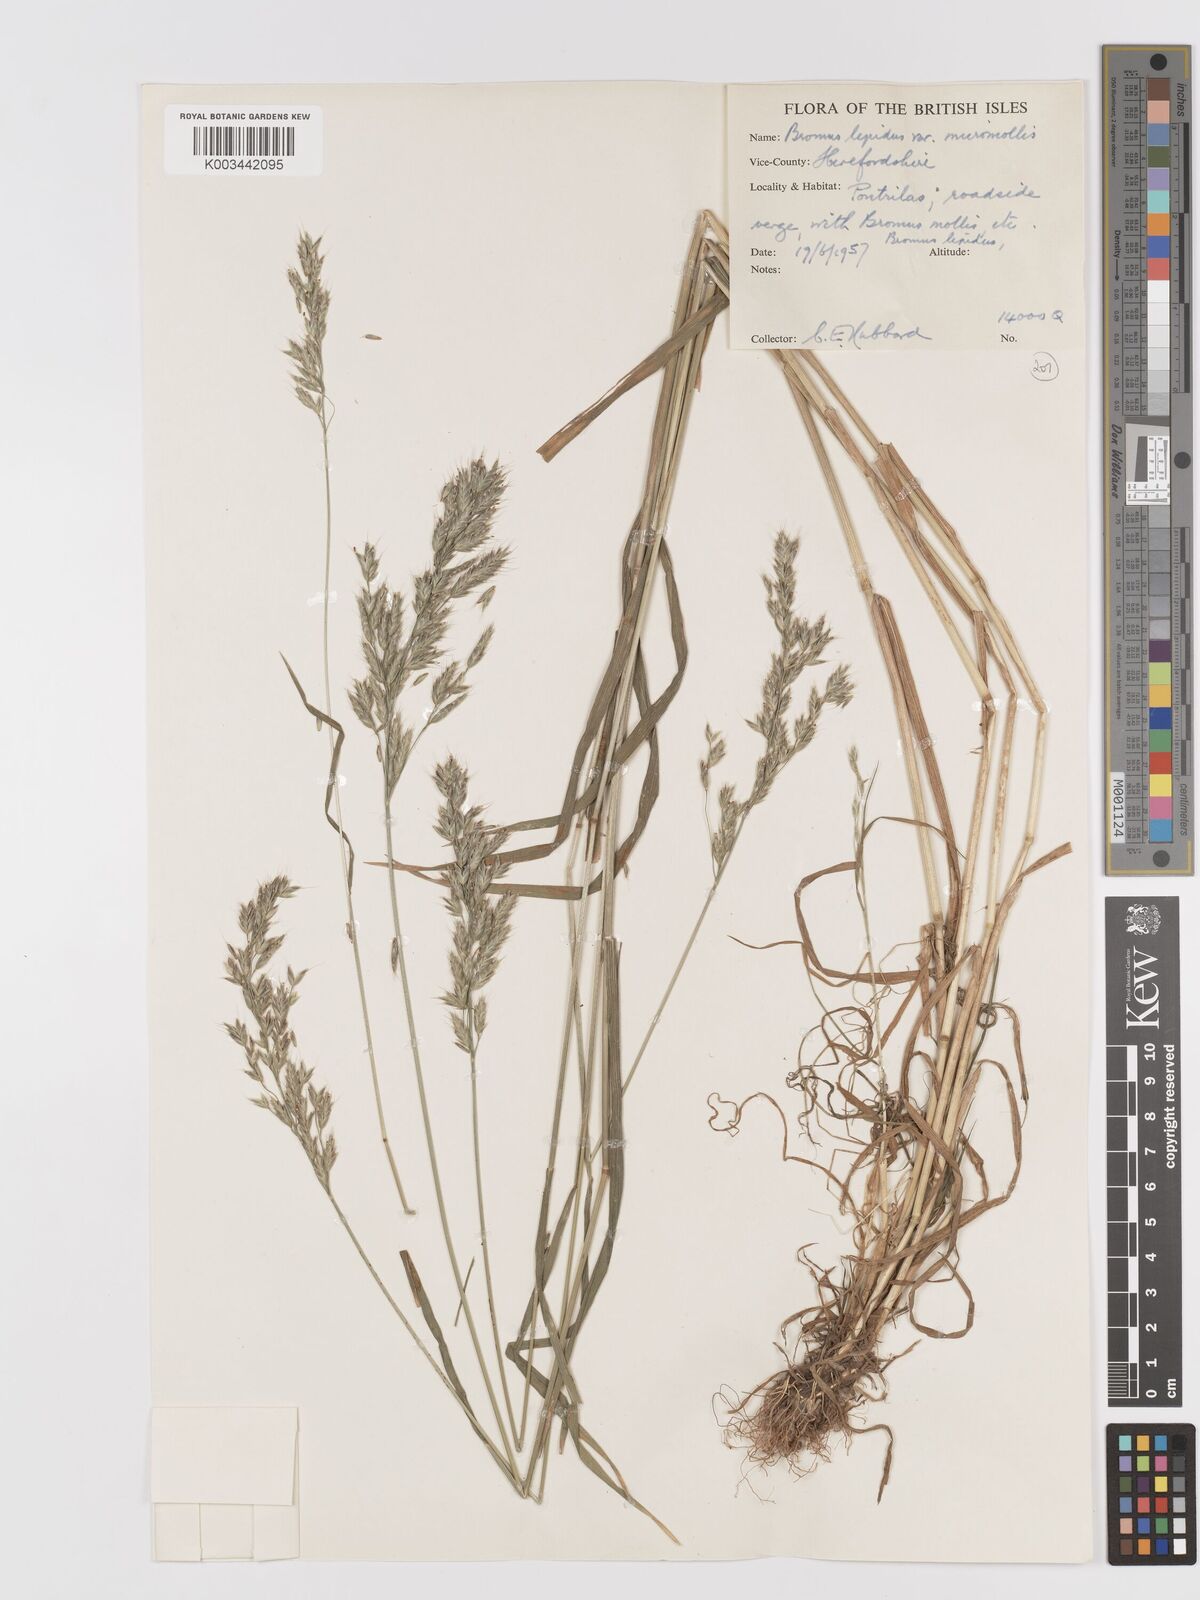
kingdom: Plantae
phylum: Tracheophyta
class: Liliopsida
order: Poales
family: Poaceae
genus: Bromus
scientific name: Bromus lepidus
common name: Slender soft-brome
